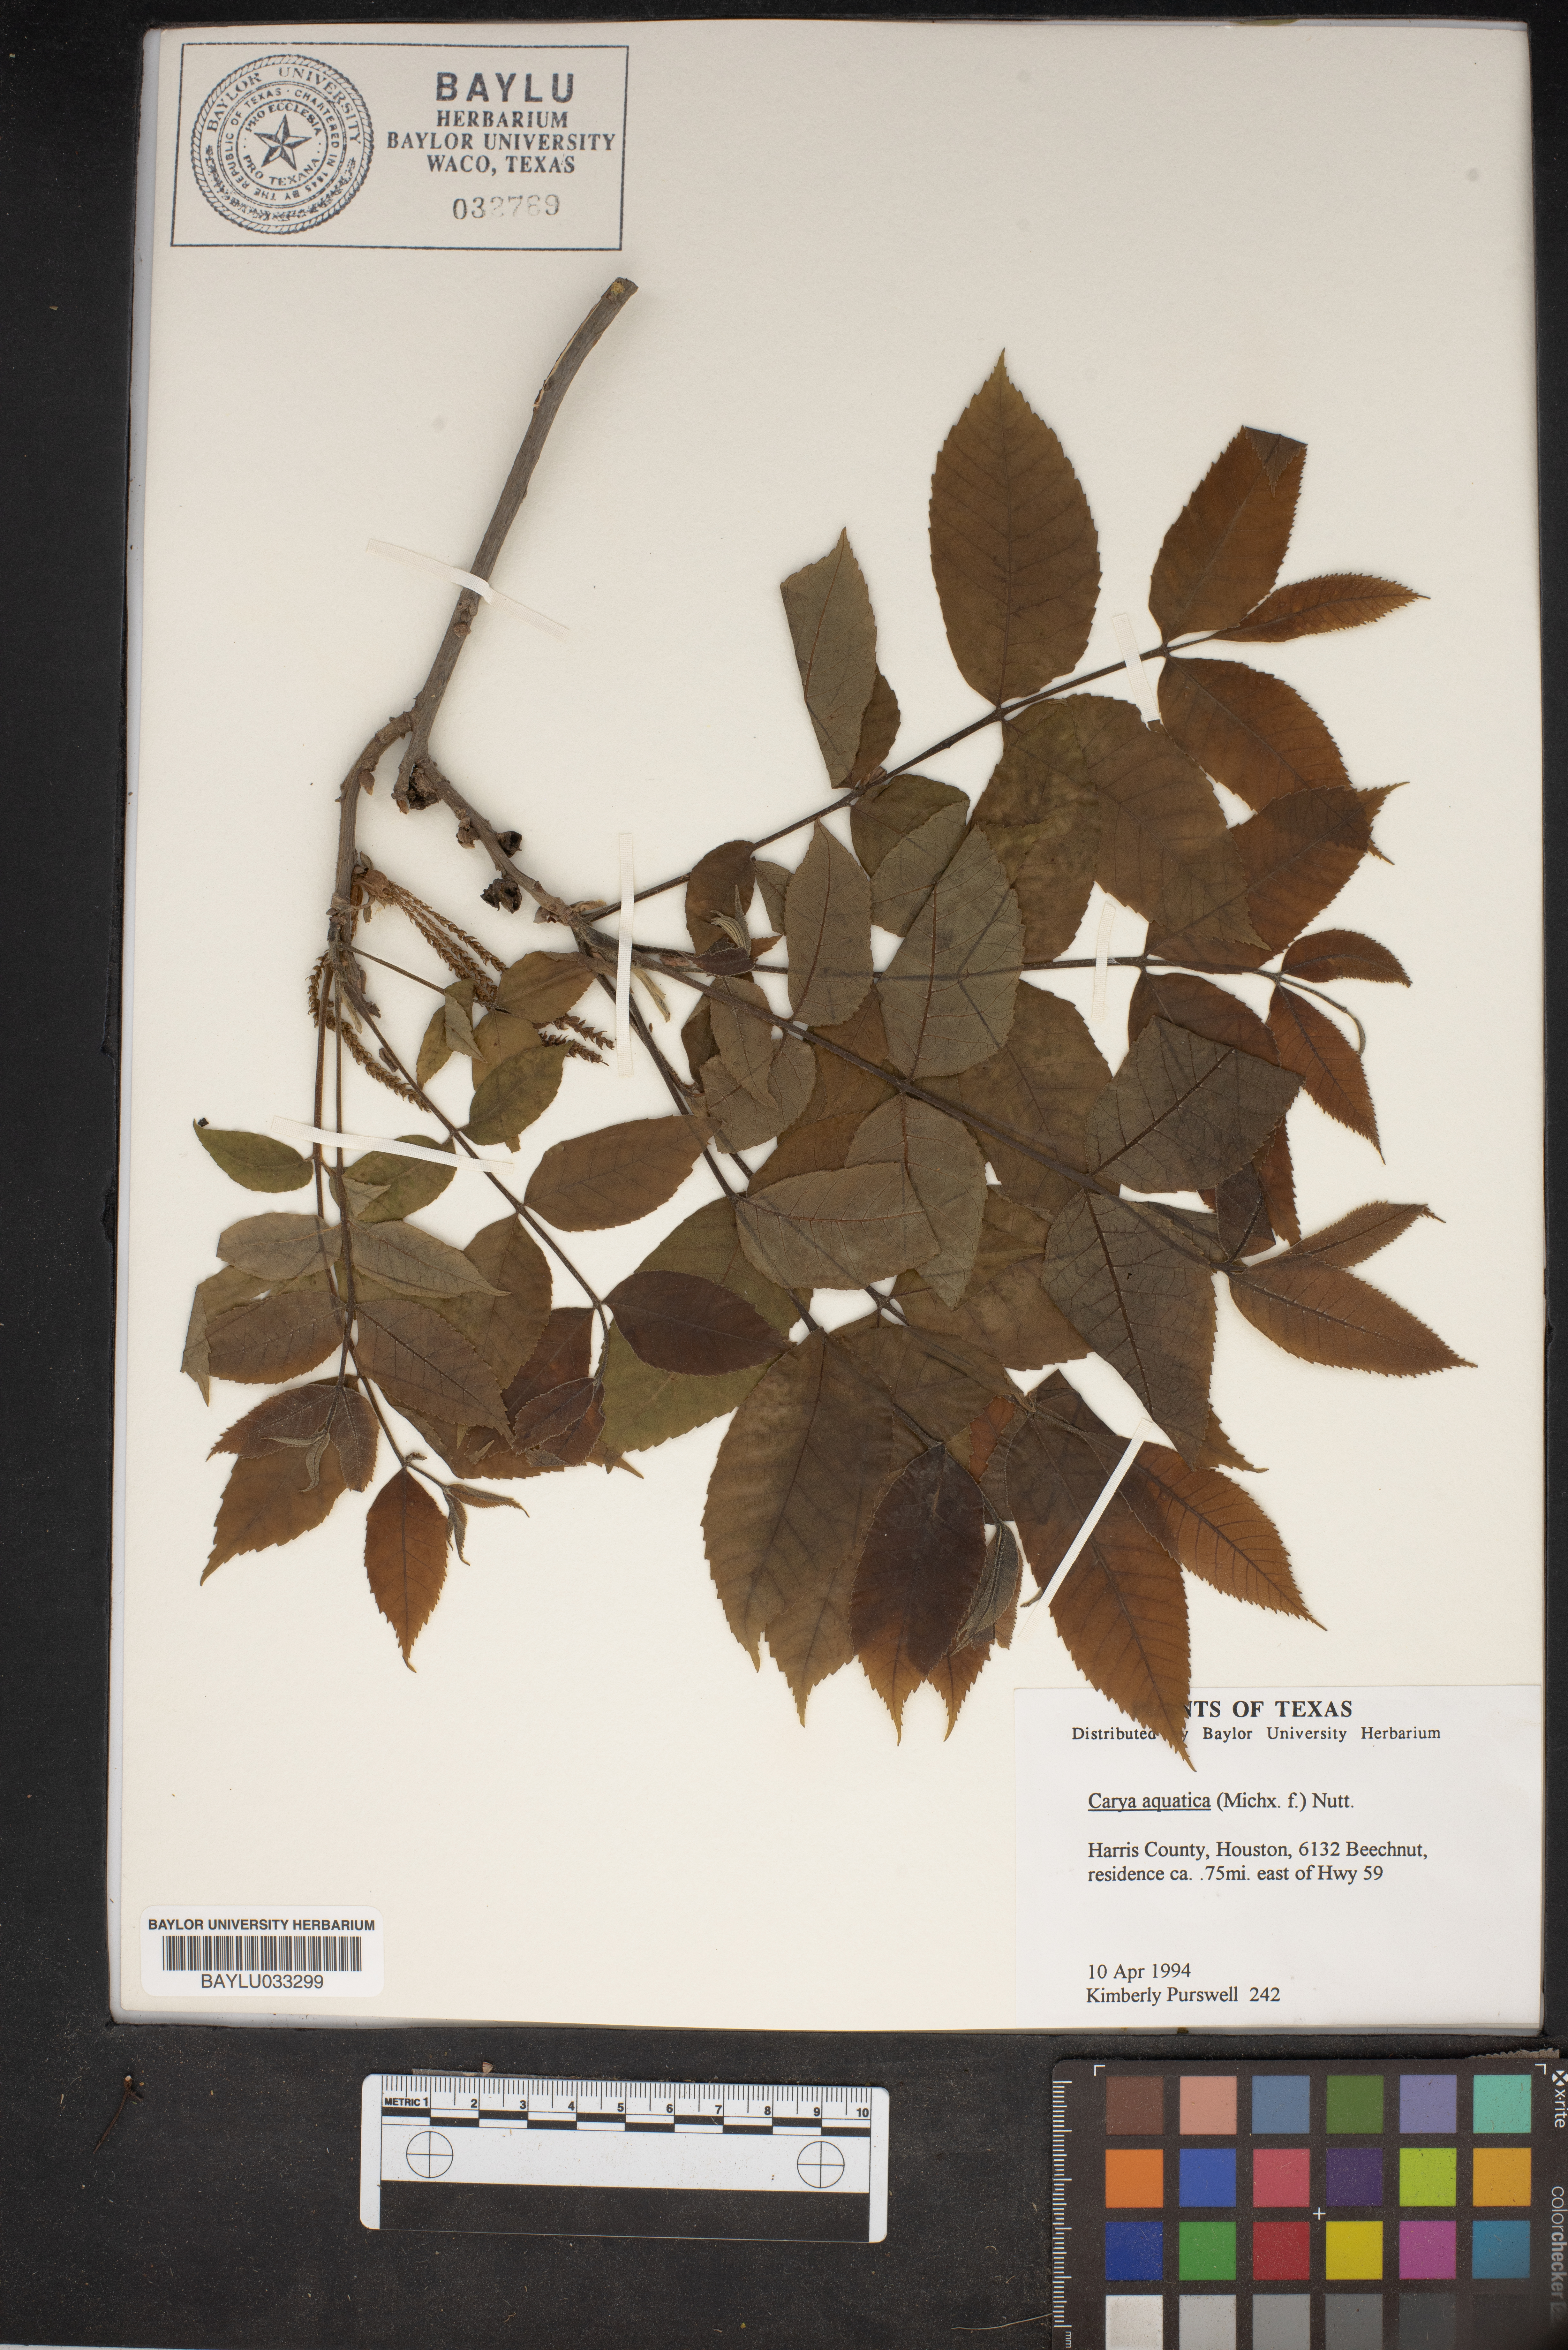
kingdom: Plantae
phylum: Tracheophyta
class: Magnoliopsida
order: Fagales
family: Juglandaceae
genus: Carya
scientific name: Carya aquatica
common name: Water hickory
